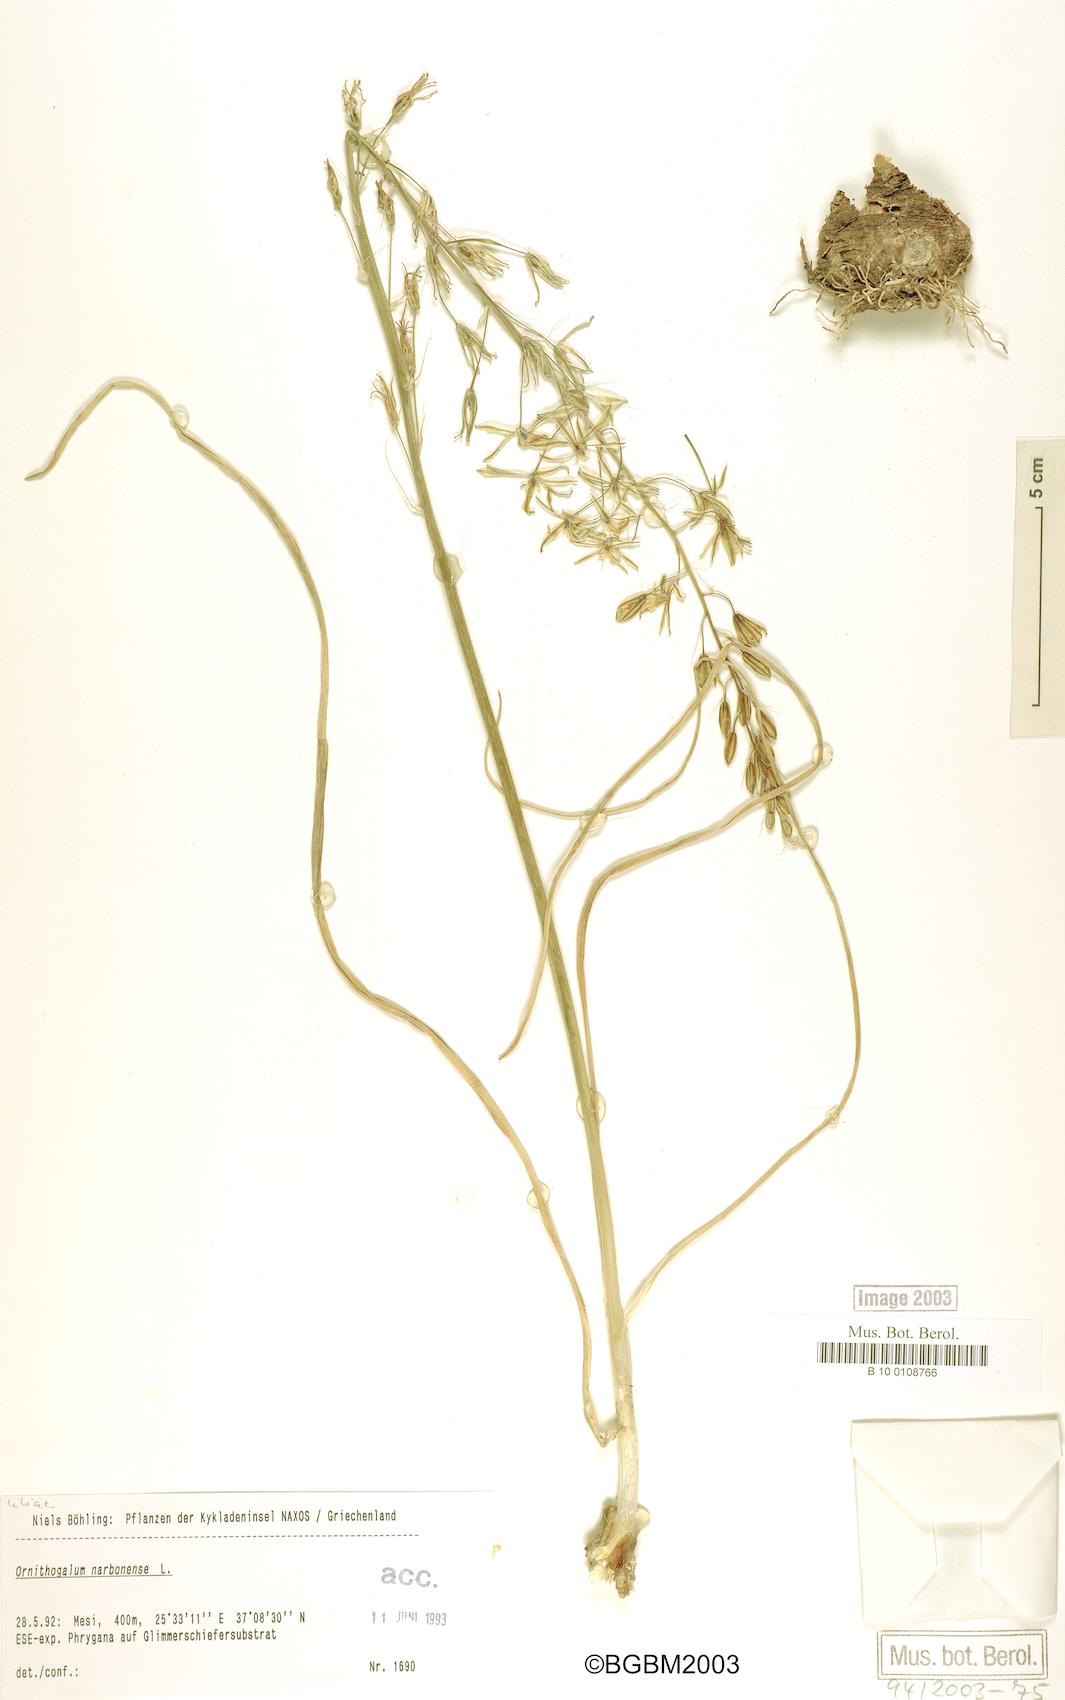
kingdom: Plantae
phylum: Tracheophyta
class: Liliopsida
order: Asparagales
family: Asparagaceae
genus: Ornithogalum
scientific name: Ornithogalum narbonense
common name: Bath-asparagus
